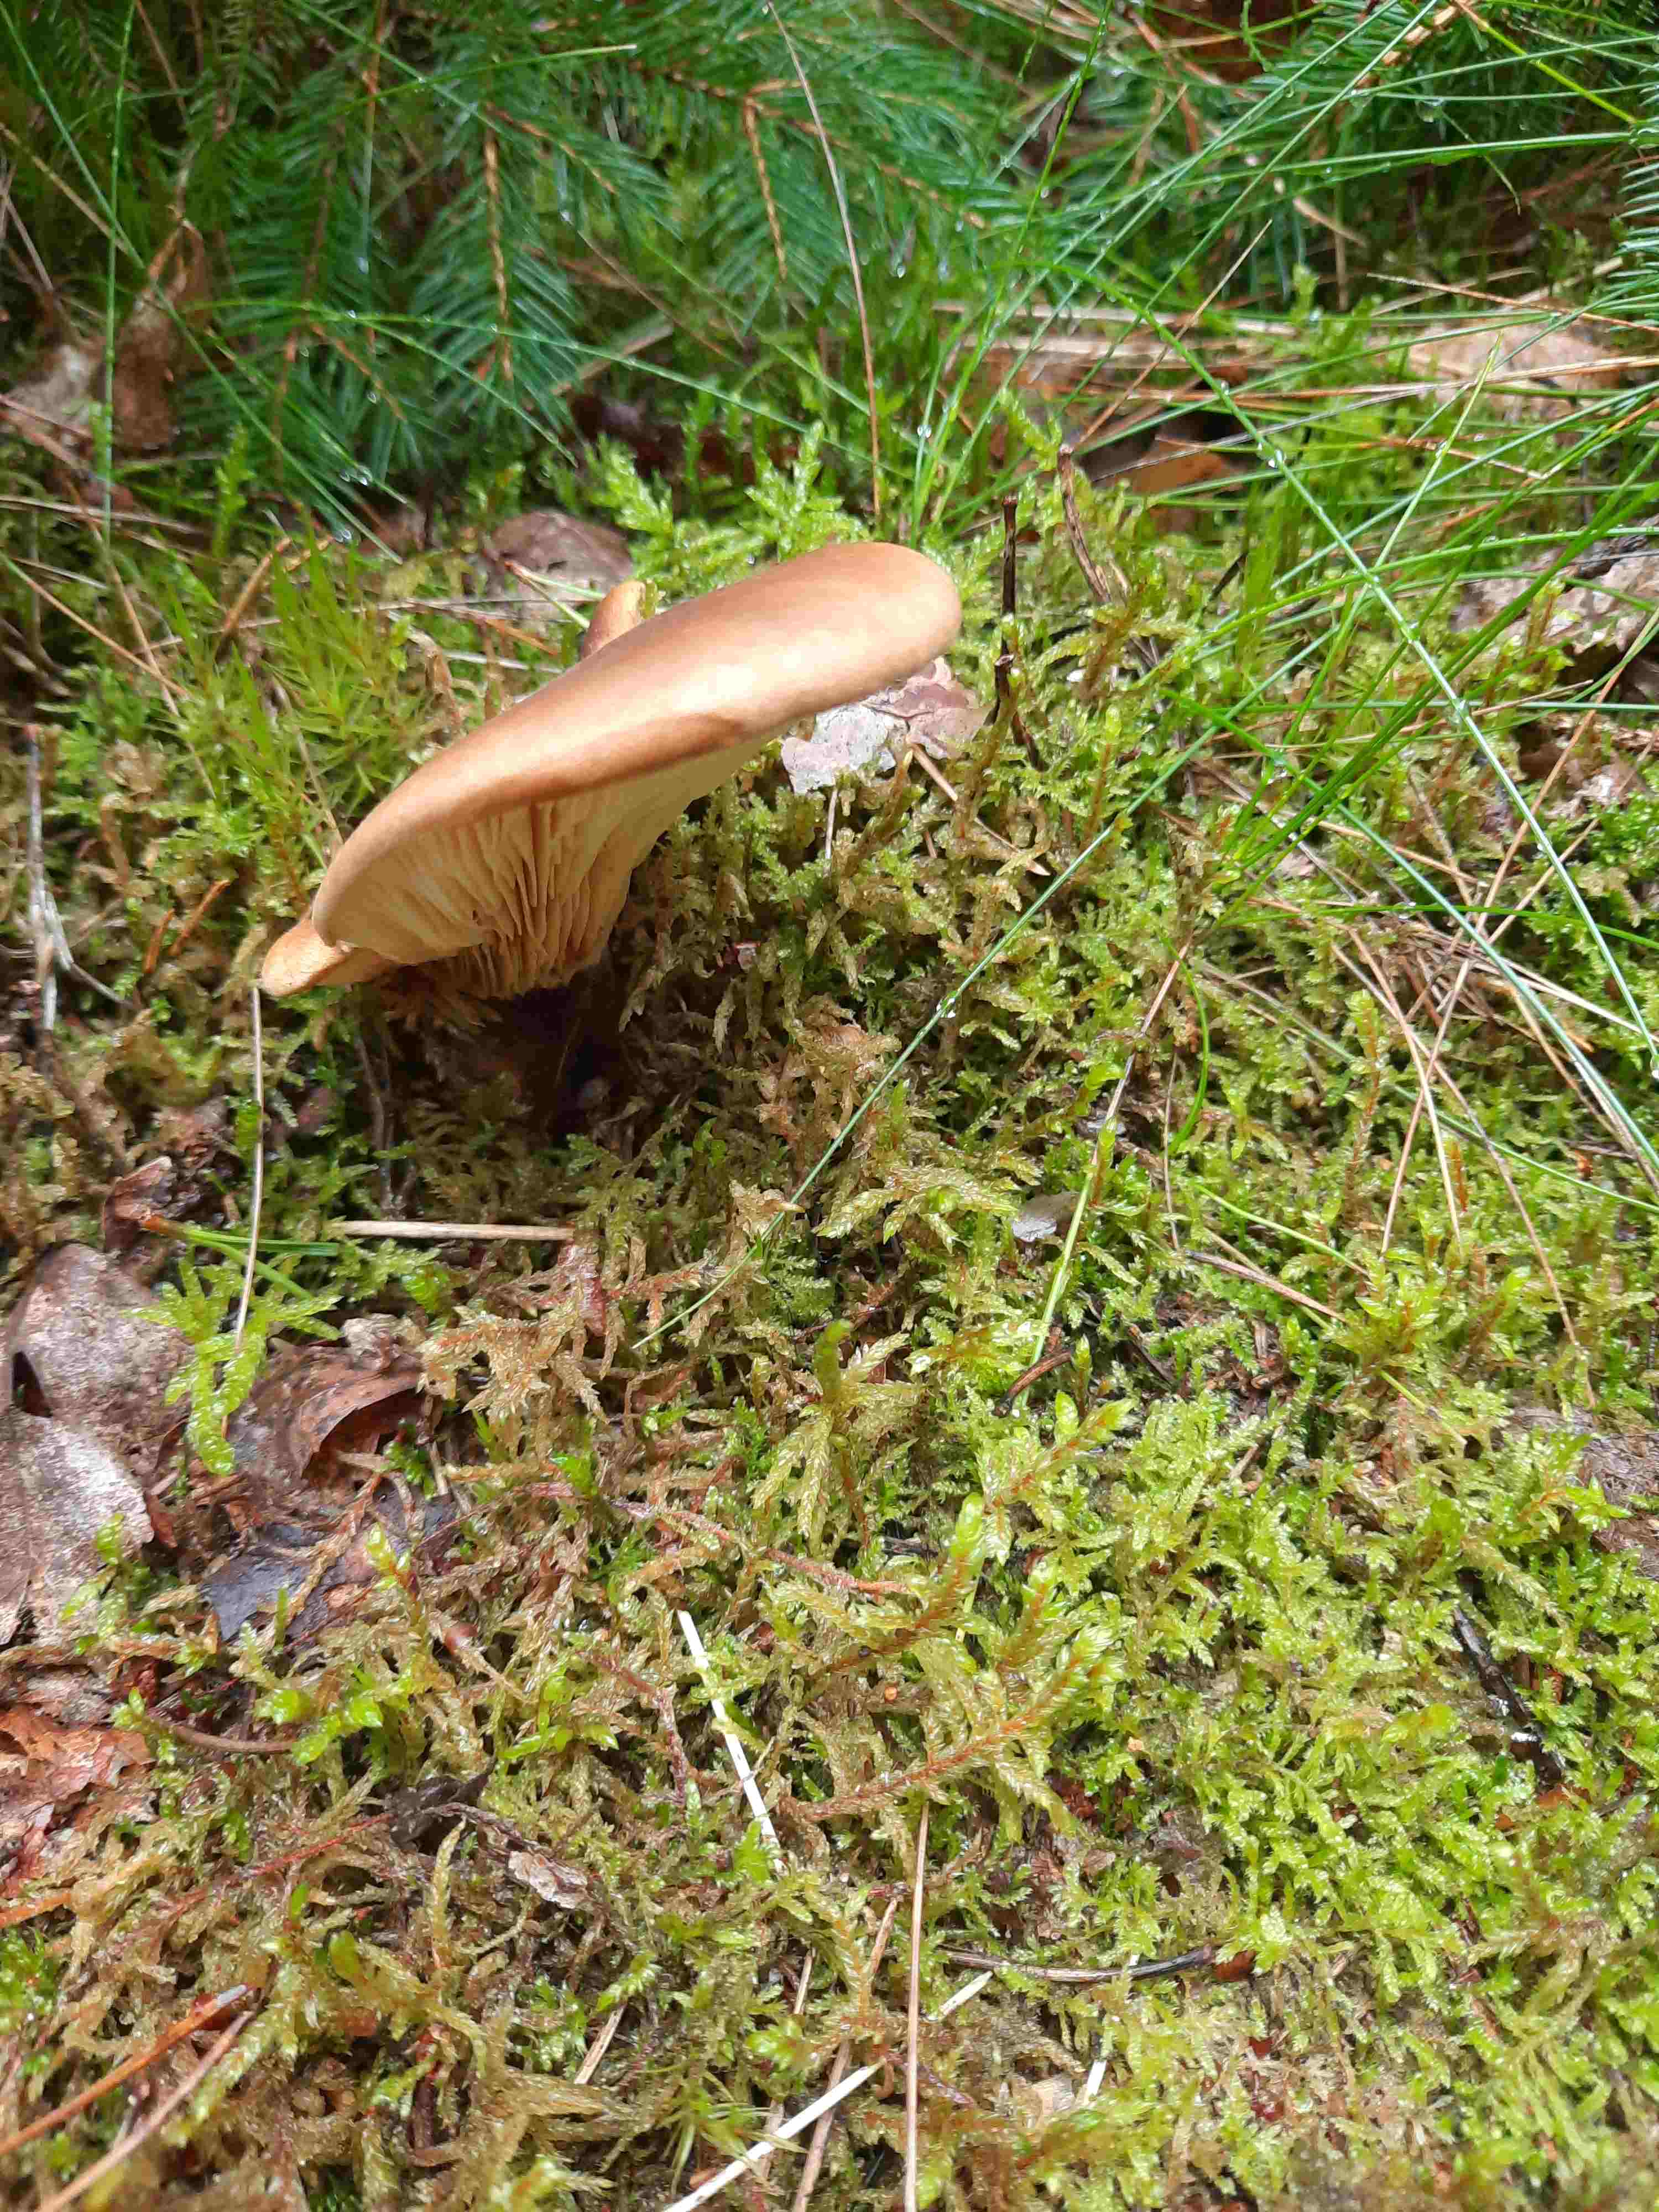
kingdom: Fungi
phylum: Basidiomycota
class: Agaricomycetes
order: Boletales
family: Tapinellaceae
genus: Tapinella
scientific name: Tapinella atrotomentosa
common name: sortfiltet viftesvamp
